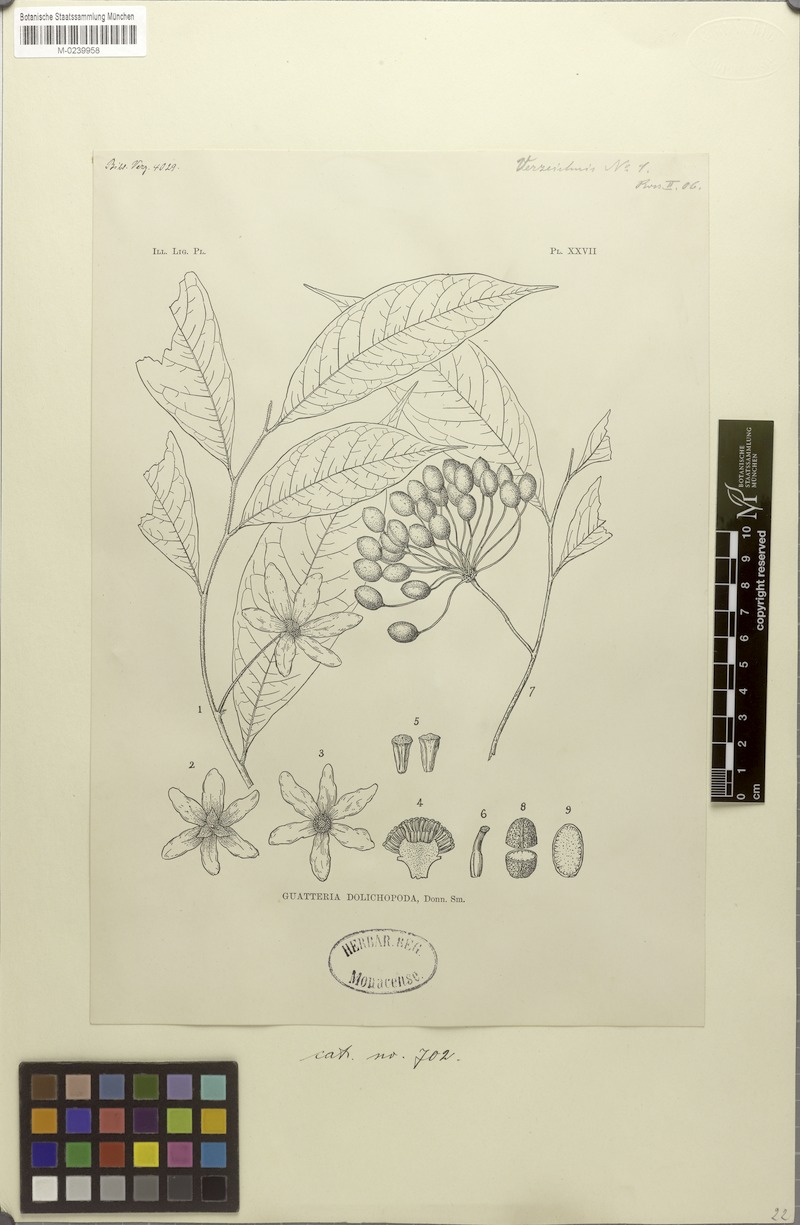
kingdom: Plantae
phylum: Tracheophyta
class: Magnoliopsida
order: Magnoliales
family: Annonaceae
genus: Guatteria
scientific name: Guatteria dolichopoda
